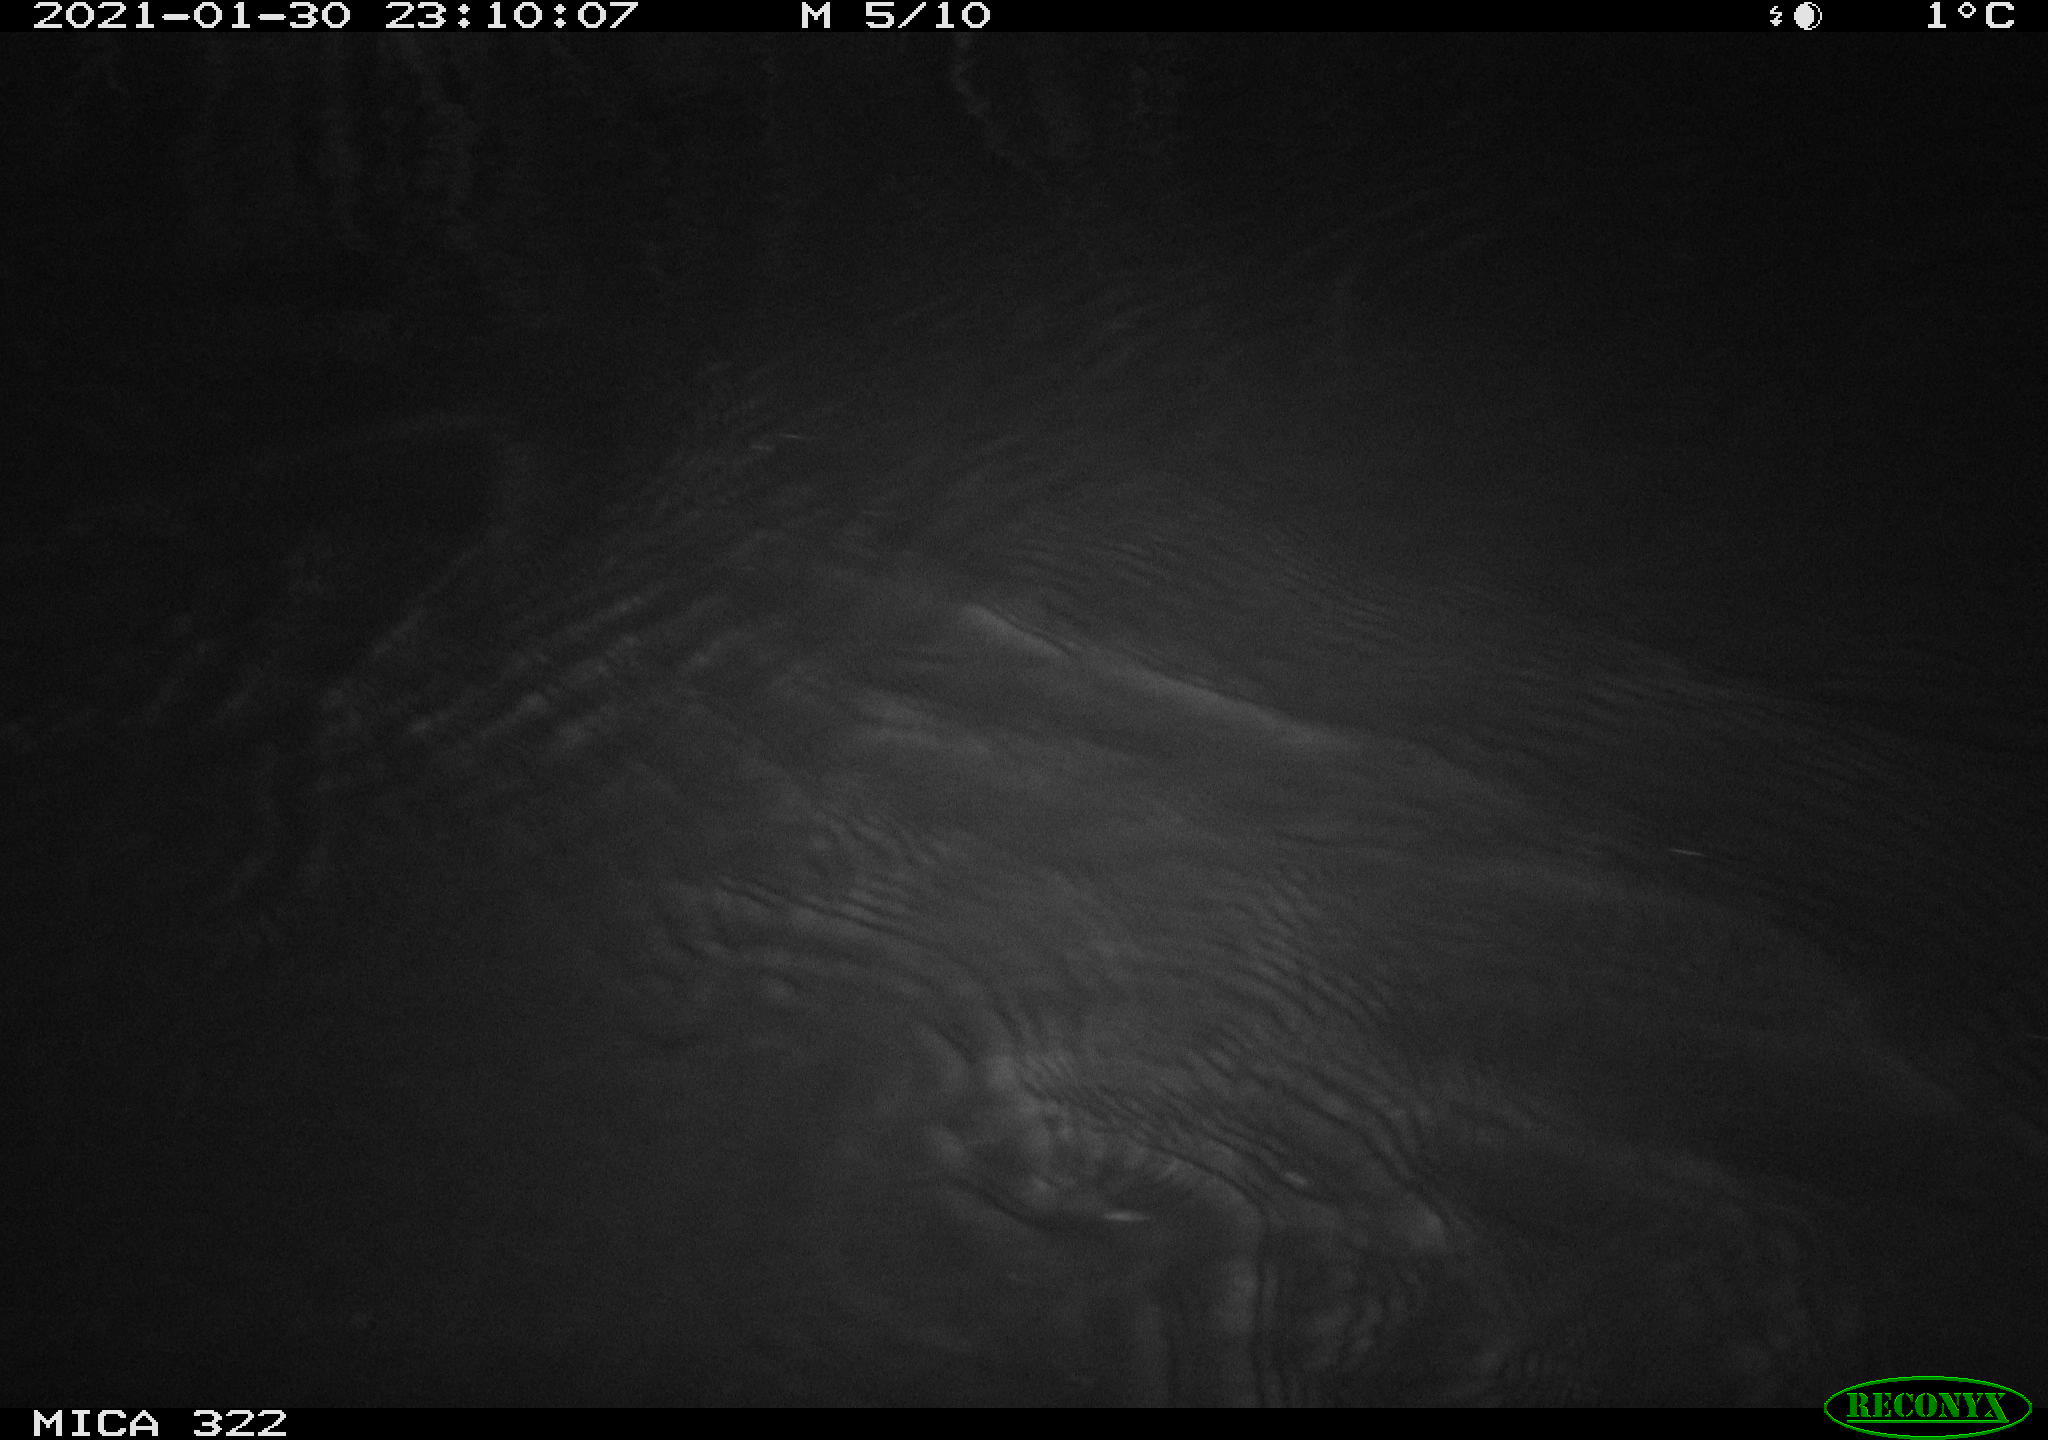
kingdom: Animalia
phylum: Chordata
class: Mammalia
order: Rodentia
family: Muridae
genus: Rattus
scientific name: Rattus norvegicus
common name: Brown rat
